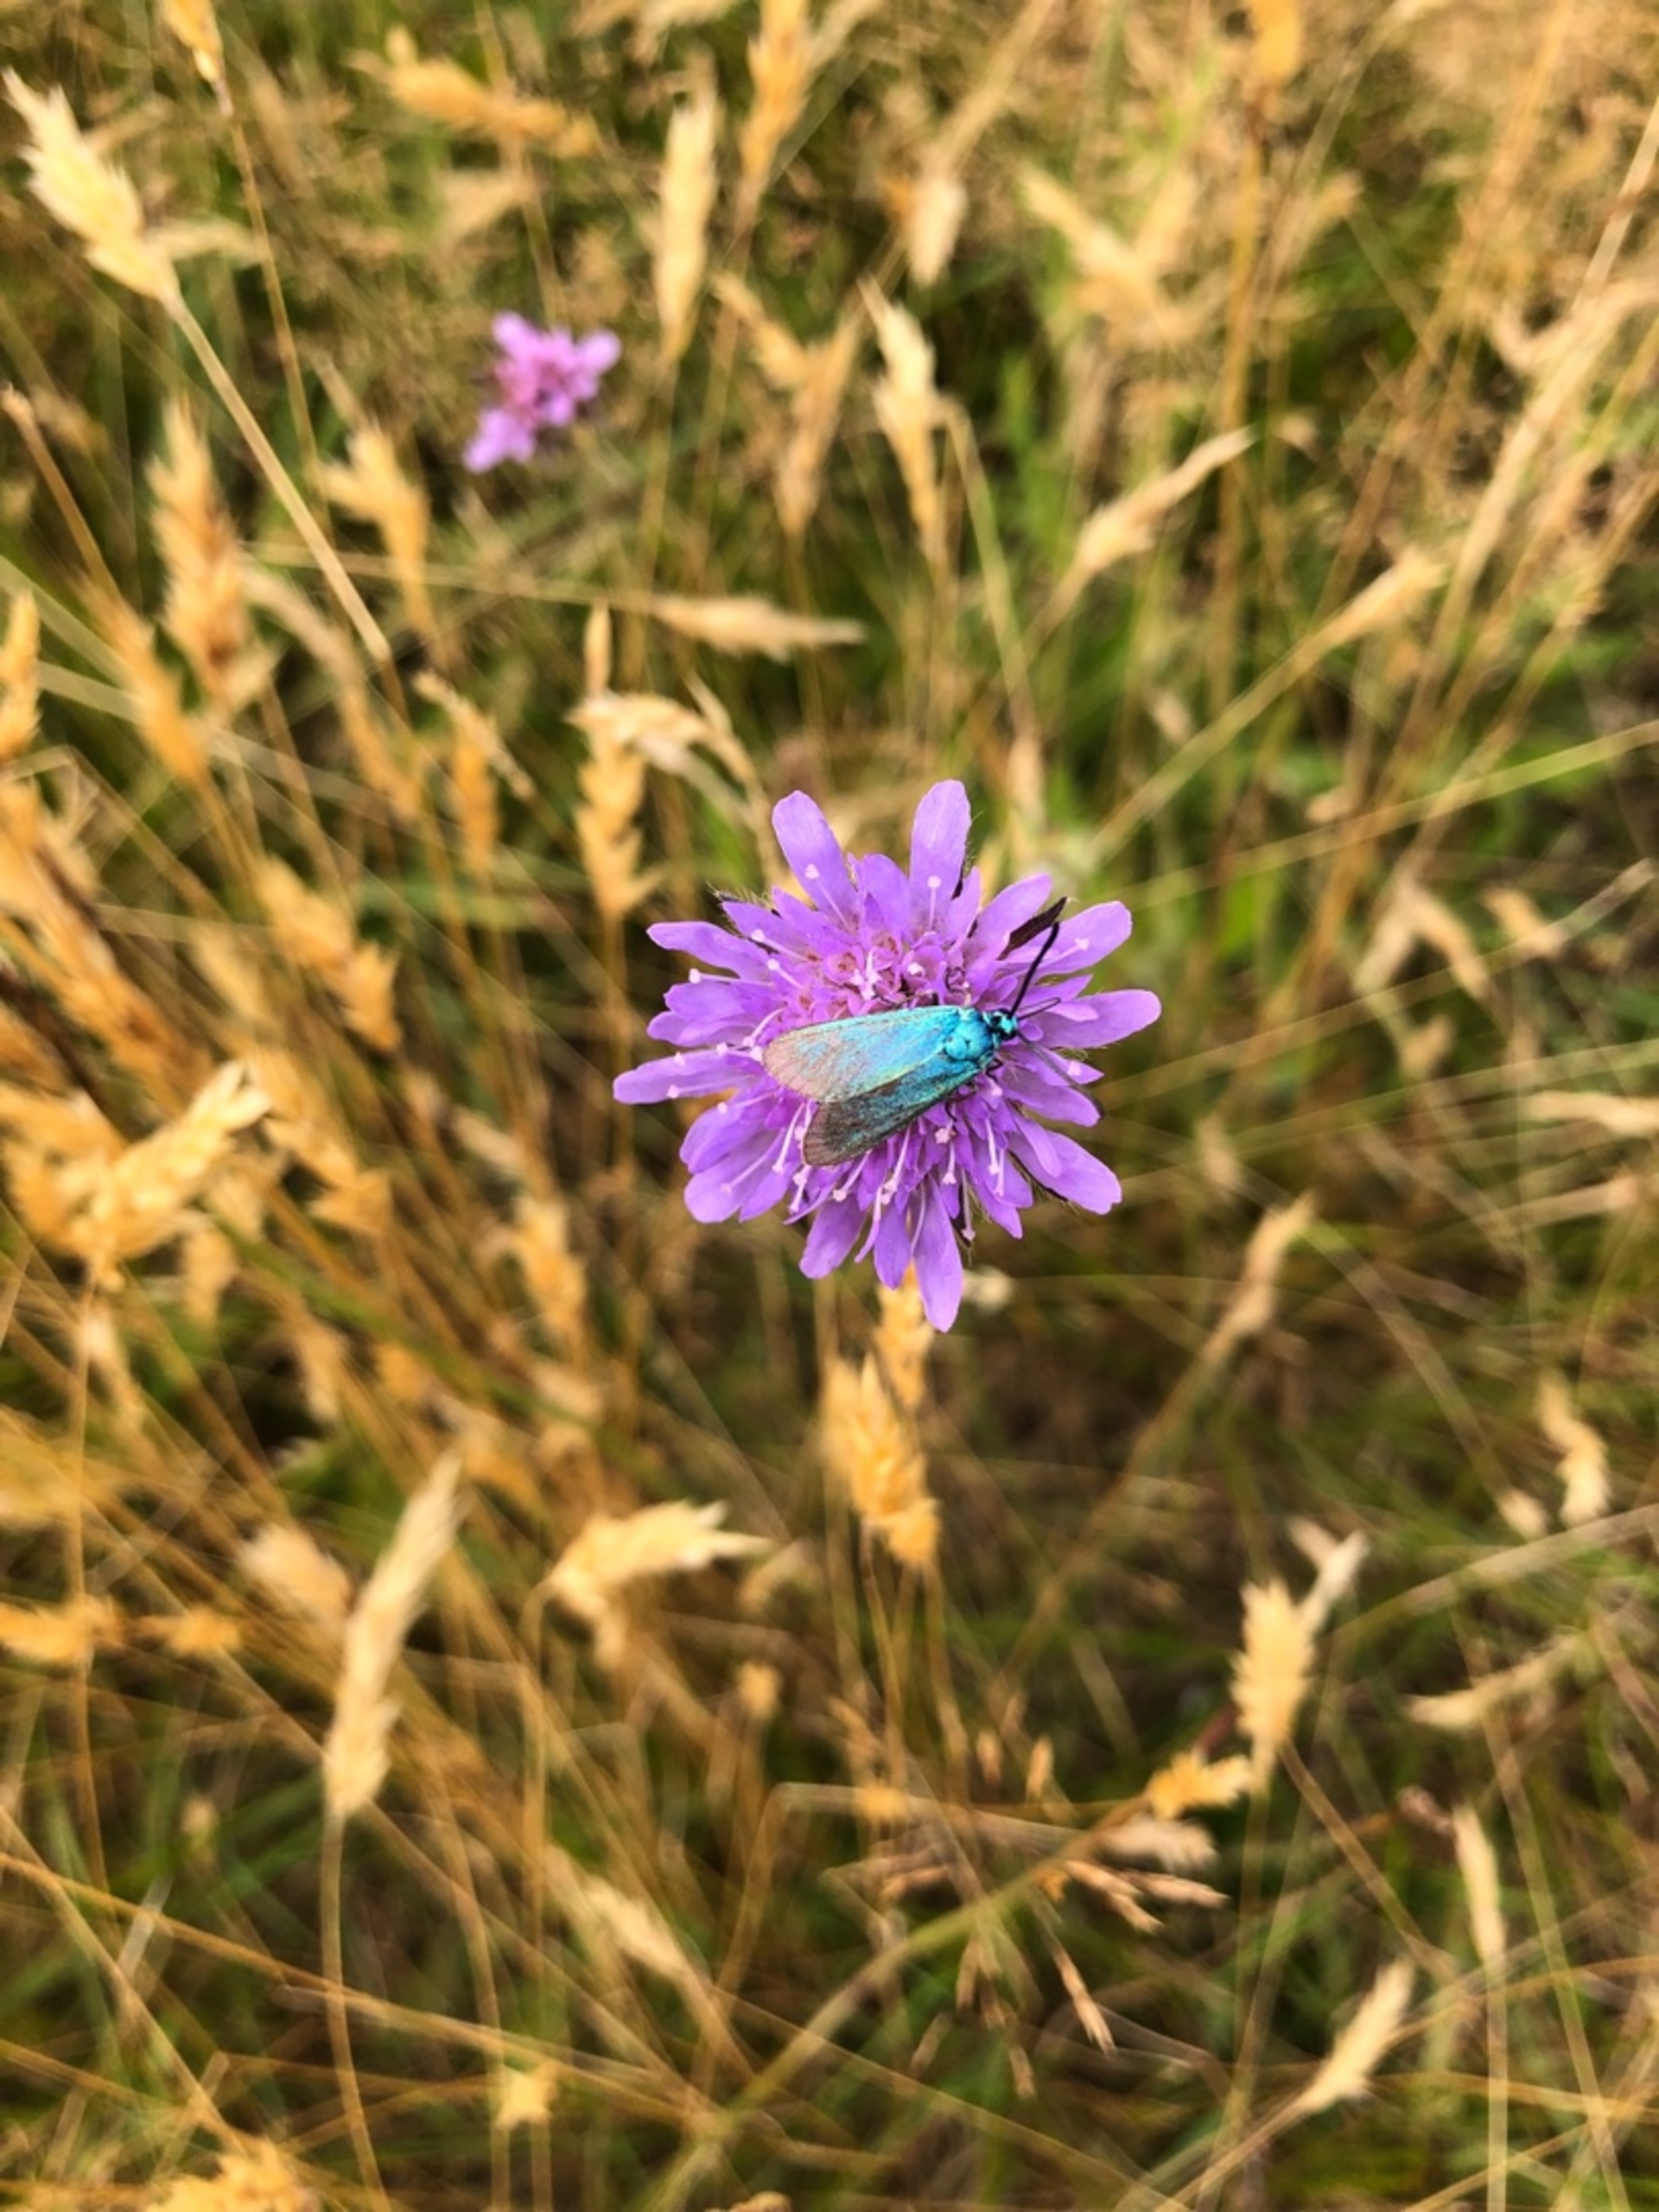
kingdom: Animalia
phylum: Arthropoda
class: Insecta
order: Lepidoptera
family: Zygaenidae
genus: Adscita
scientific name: Adscita statices
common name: Metalvinge
